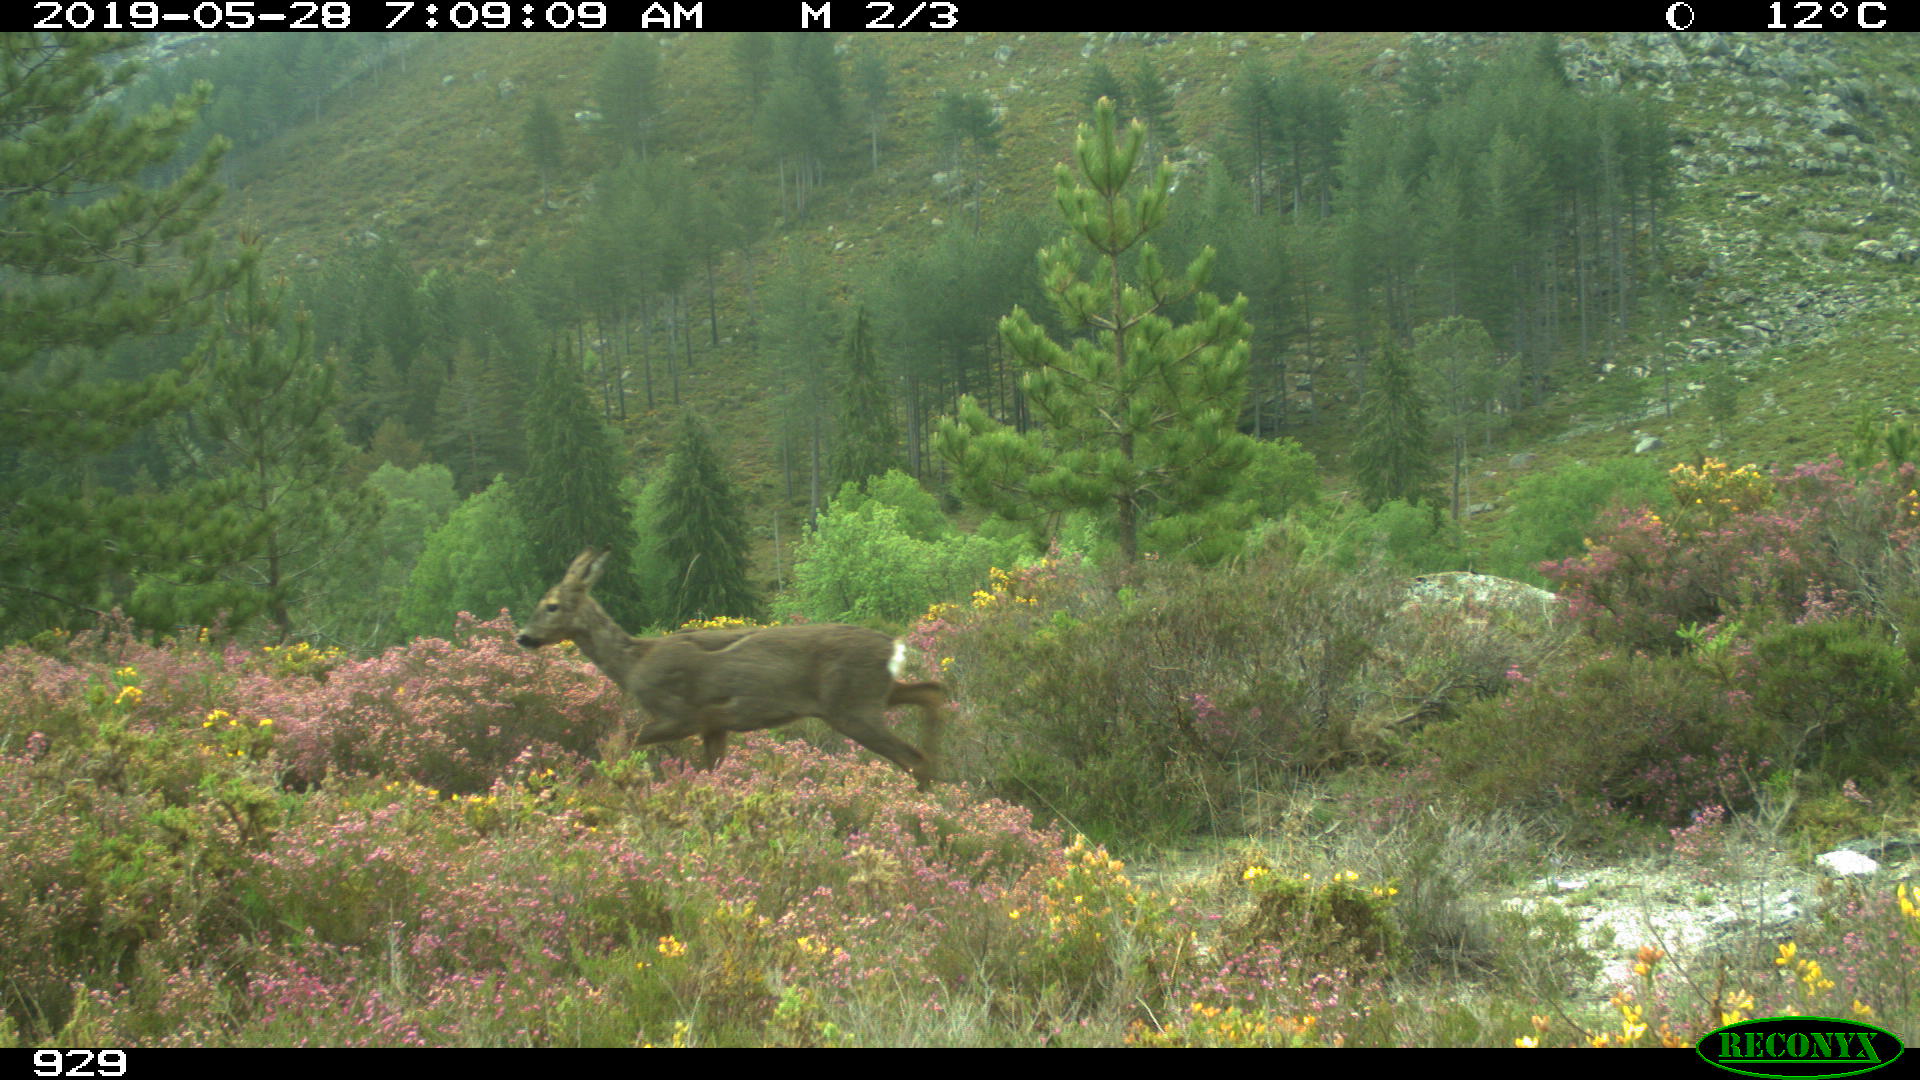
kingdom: Animalia
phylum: Chordata
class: Mammalia
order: Artiodactyla
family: Cervidae
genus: Capreolus
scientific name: Capreolus capreolus
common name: Western roe deer
